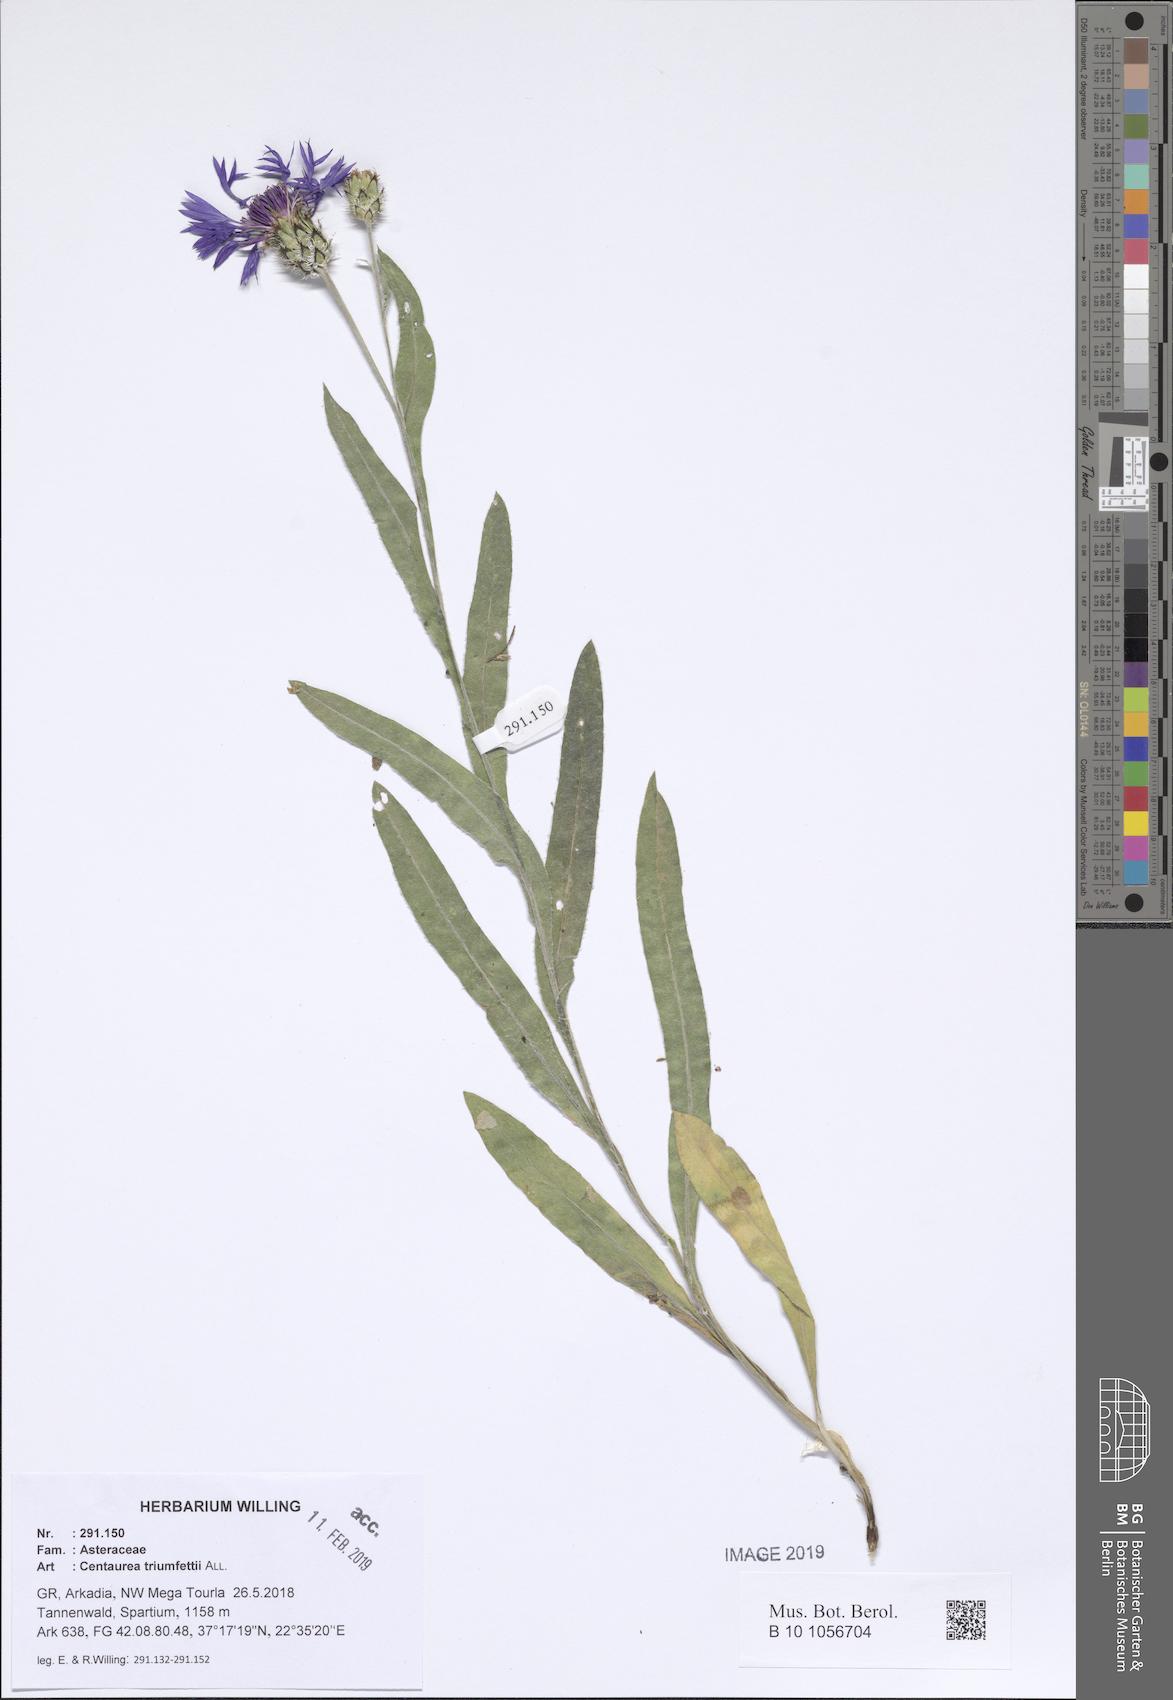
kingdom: Plantae
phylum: Tracheophyta
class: Magnoliopsida
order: Asterales
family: Asteraceae
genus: Centaurea
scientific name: Centaurea triumfettii
